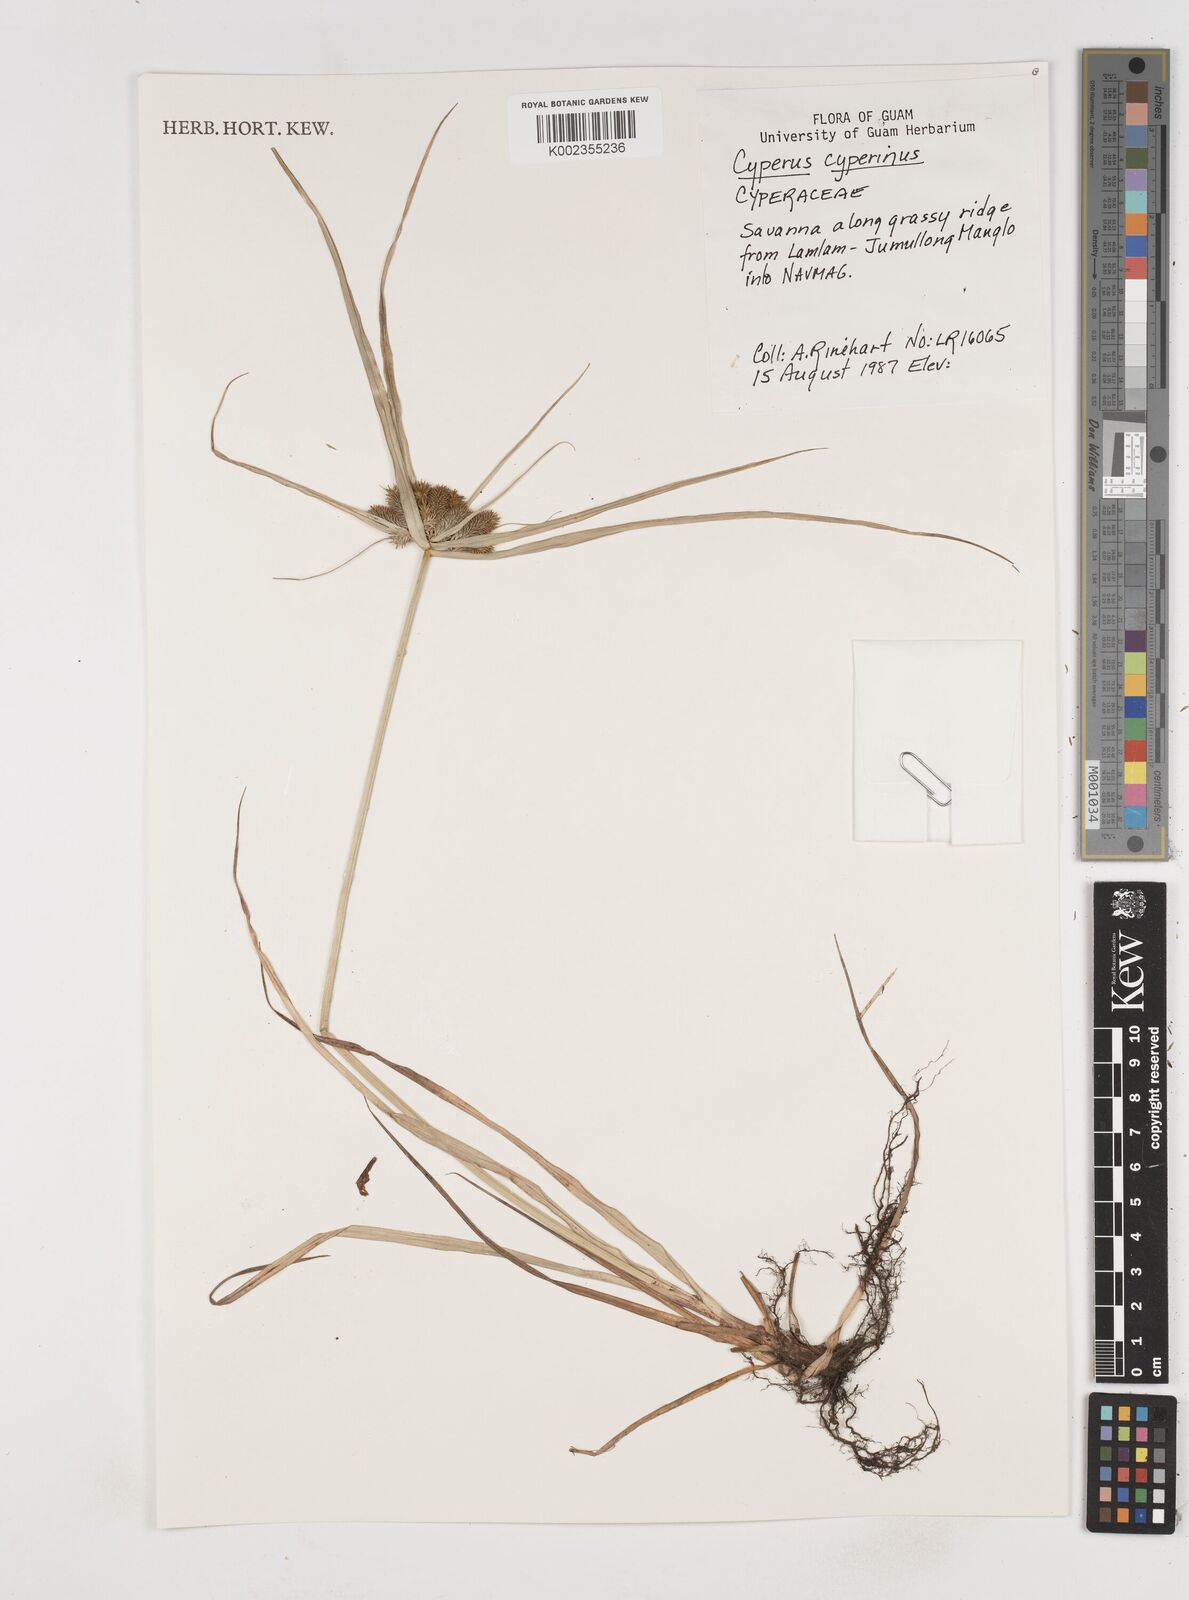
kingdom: Plantae
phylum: Tracheophyta
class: Liliopsida
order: Poales
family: Cyperaceae
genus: Cyperus
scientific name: Cyperus cyperinus
